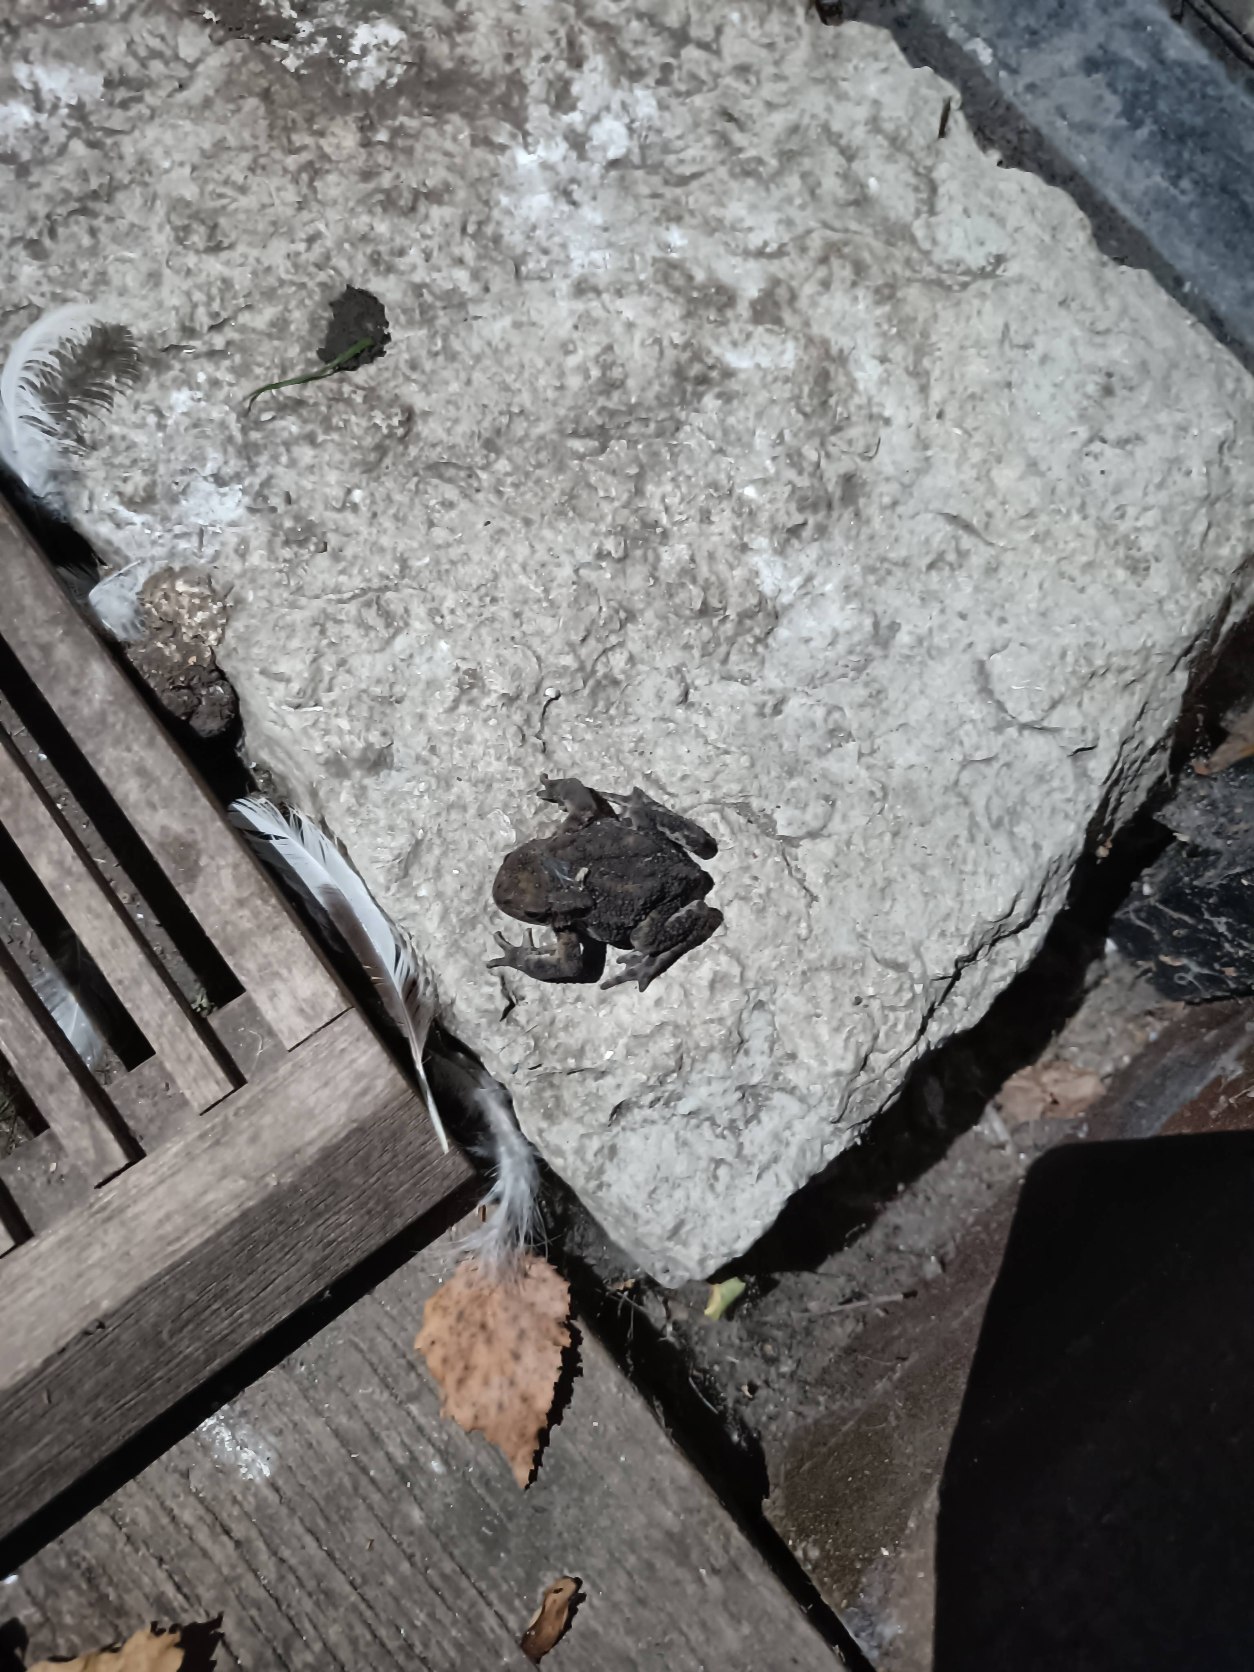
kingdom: Animalia
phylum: Chordata
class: Amphibia
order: Anura
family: Bufonidae
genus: Bufo
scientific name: Bufo bufo
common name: Skrubtudse
